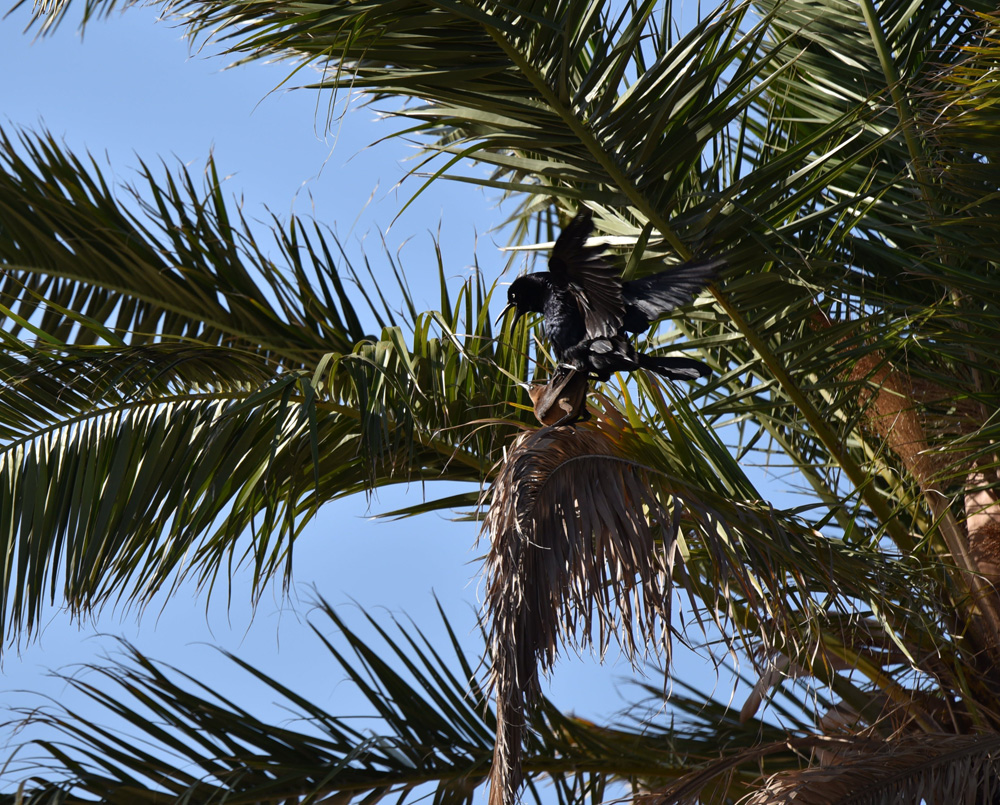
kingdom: Animalia
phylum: Chordata
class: Aves
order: Passeriformes
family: Icteridae
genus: Quiscalus
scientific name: Quiscalus mexicanus
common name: Great-tailed grackle
